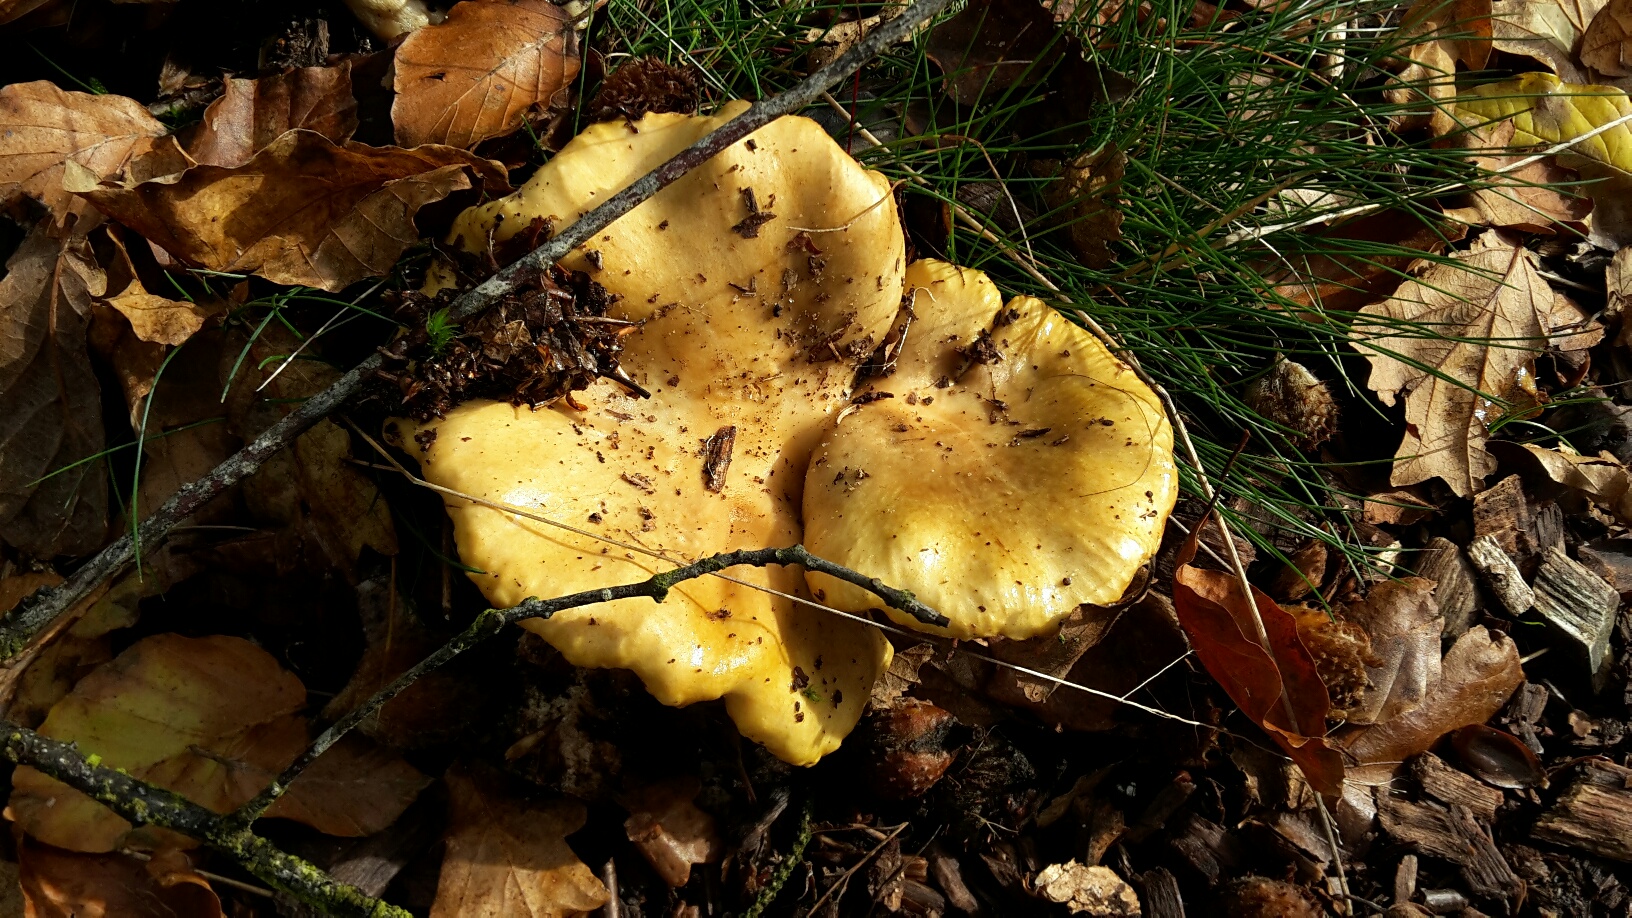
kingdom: Fungi
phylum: Basidiomycota
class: Agaricomycetes
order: Russulales
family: Russulaceae
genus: Russula
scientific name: Russula ochroleuca
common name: okkergul skørhat
